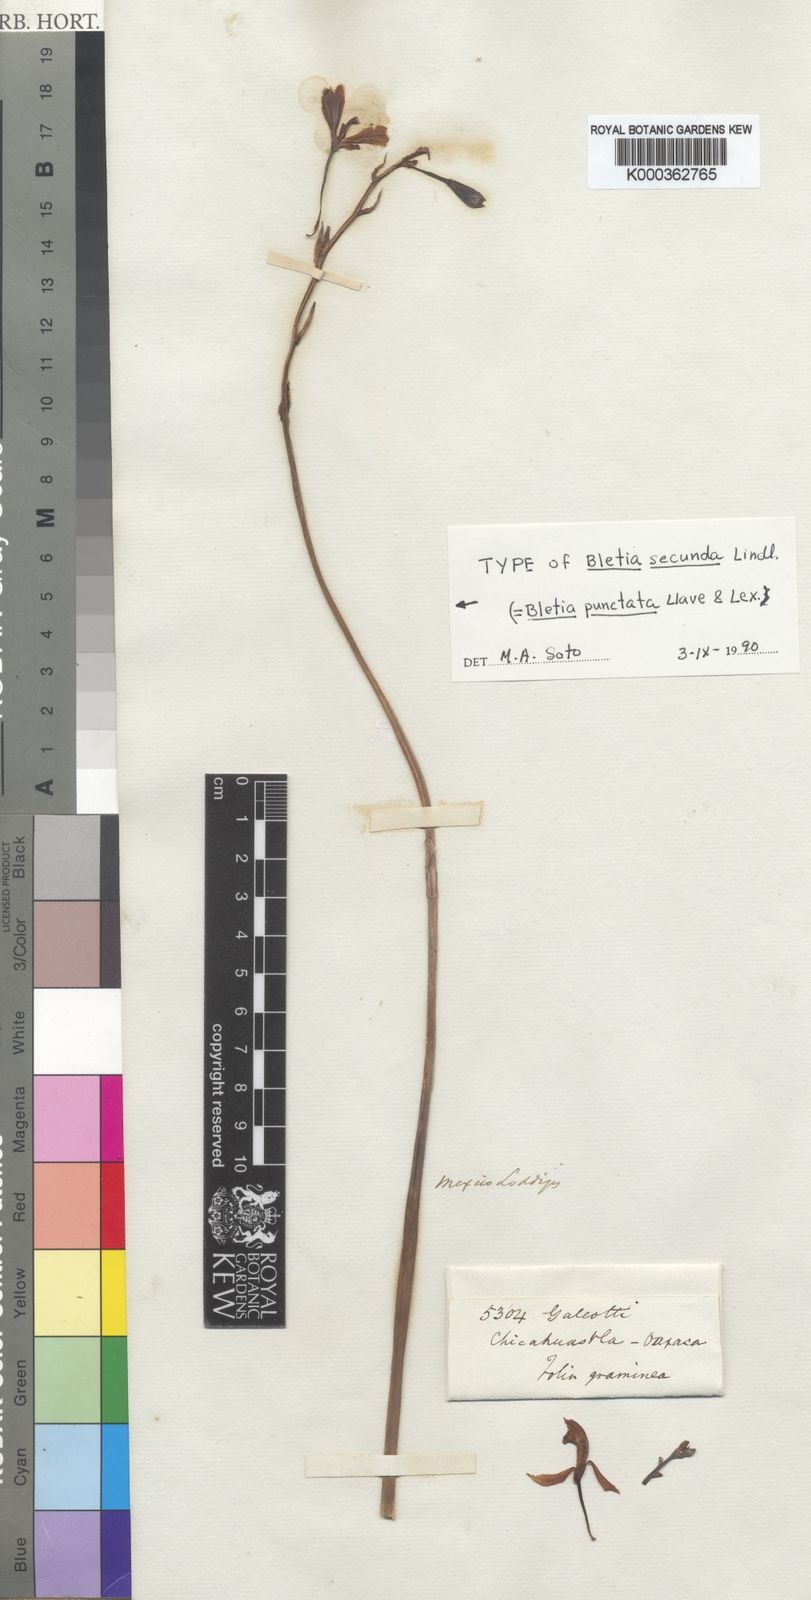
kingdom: Plantae
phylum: Tracheophyta
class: Liliopsida
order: Asparagales
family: Orchidaceae
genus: Bletia
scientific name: Bletia punctata
